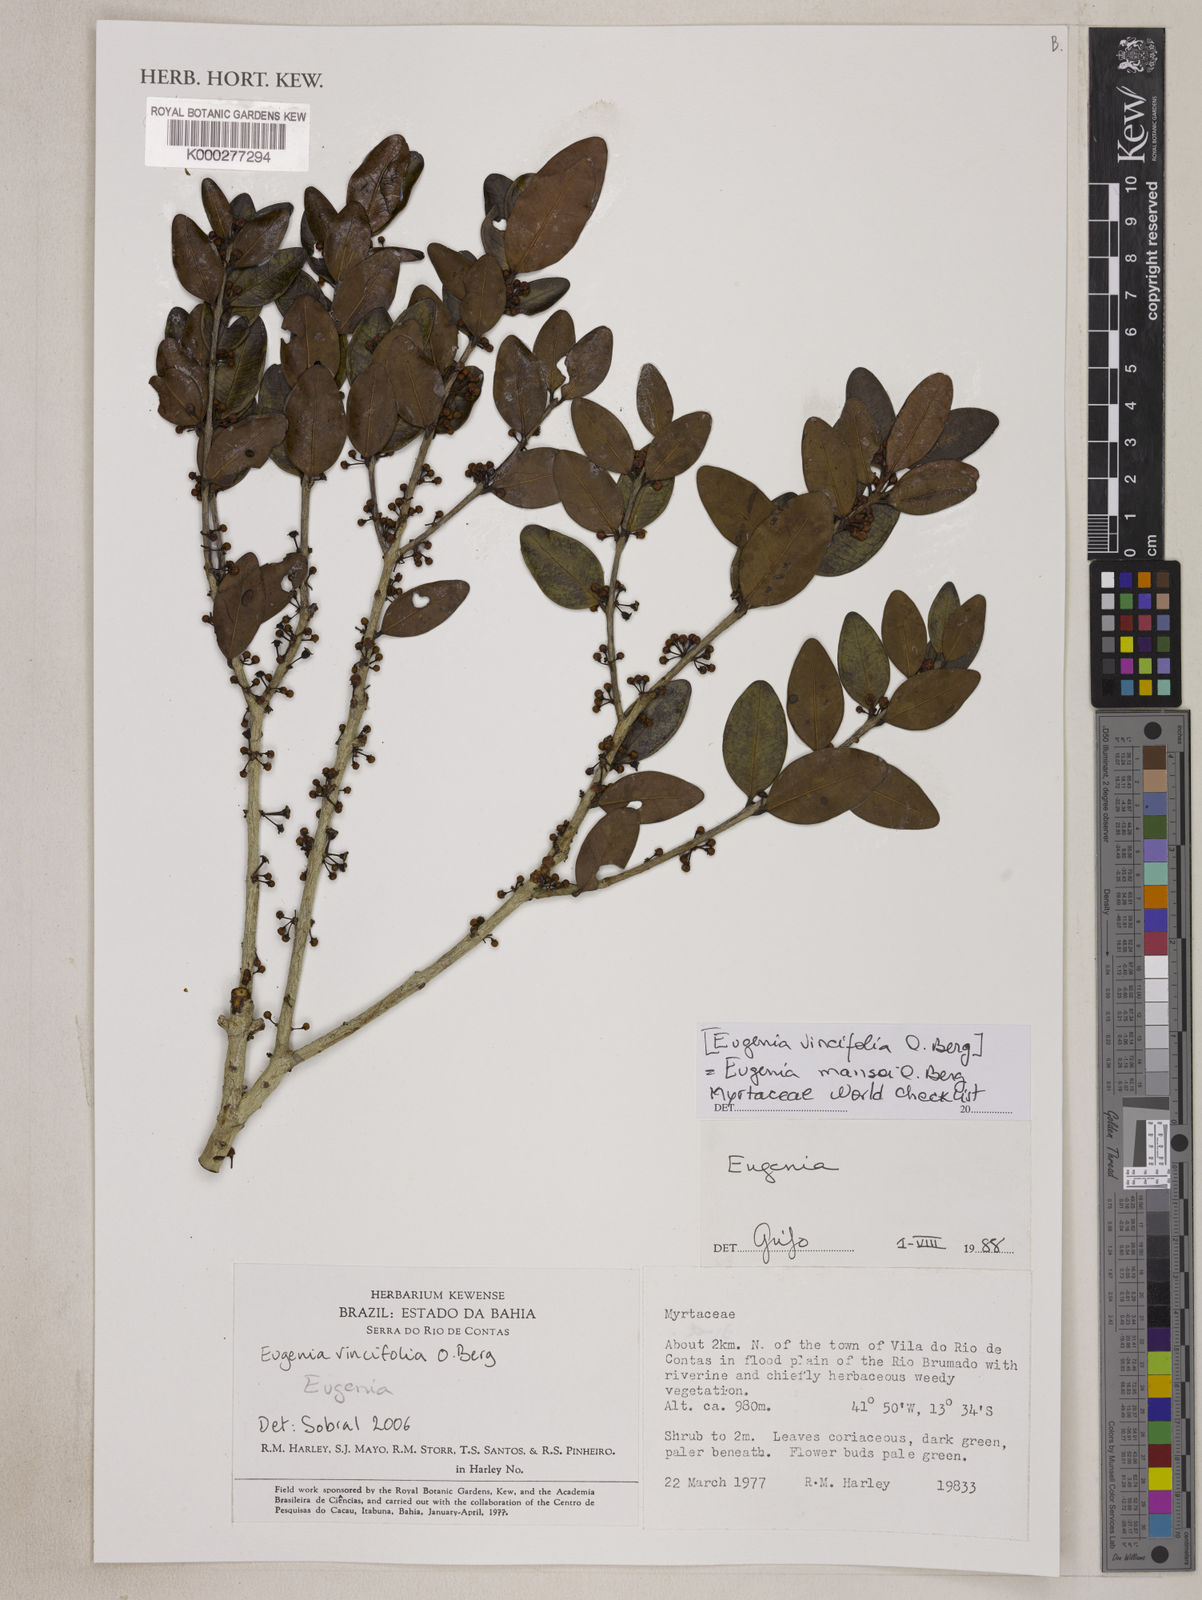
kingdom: Plantae
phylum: Tracheophyta
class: Magnoliopsida
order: Myrtales
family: Myrtaceae
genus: Eugenia
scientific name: Eugenia mansoi
